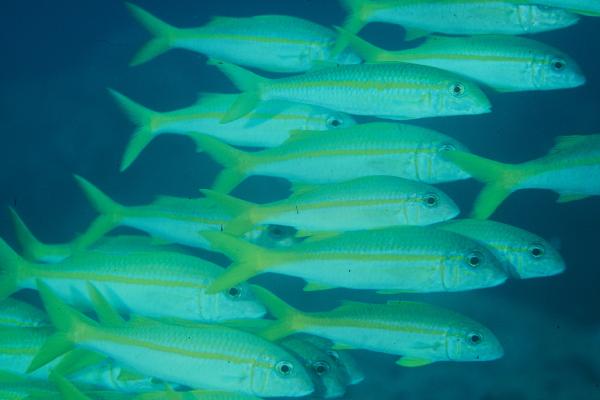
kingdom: Animalia
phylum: Chordata
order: Perciformes
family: Mullidae
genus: Mulloidichthys
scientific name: Mulloidichthys vanicolensis
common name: Yellowfin goatfish
